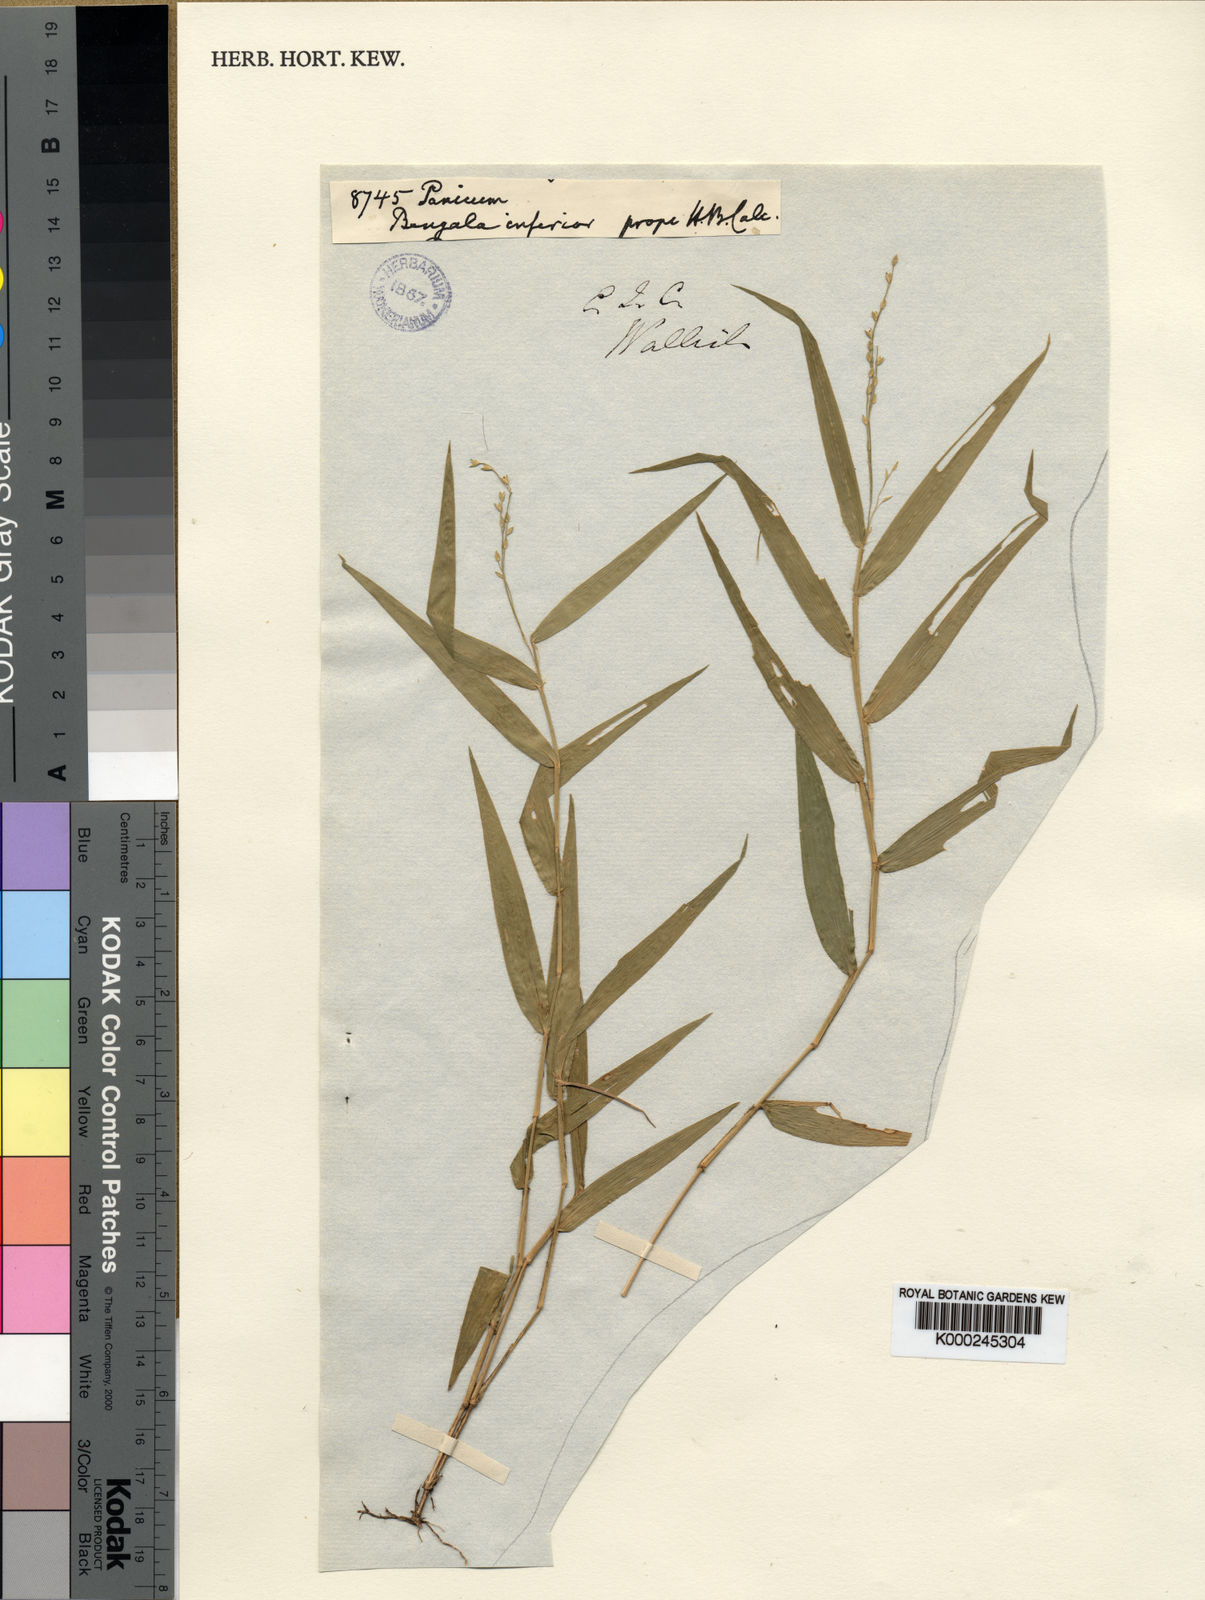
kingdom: Plantae
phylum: Tracheophyta
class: Liliopsida
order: Poales
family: Poaceae
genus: Urochloa
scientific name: Urochloa kurzii
